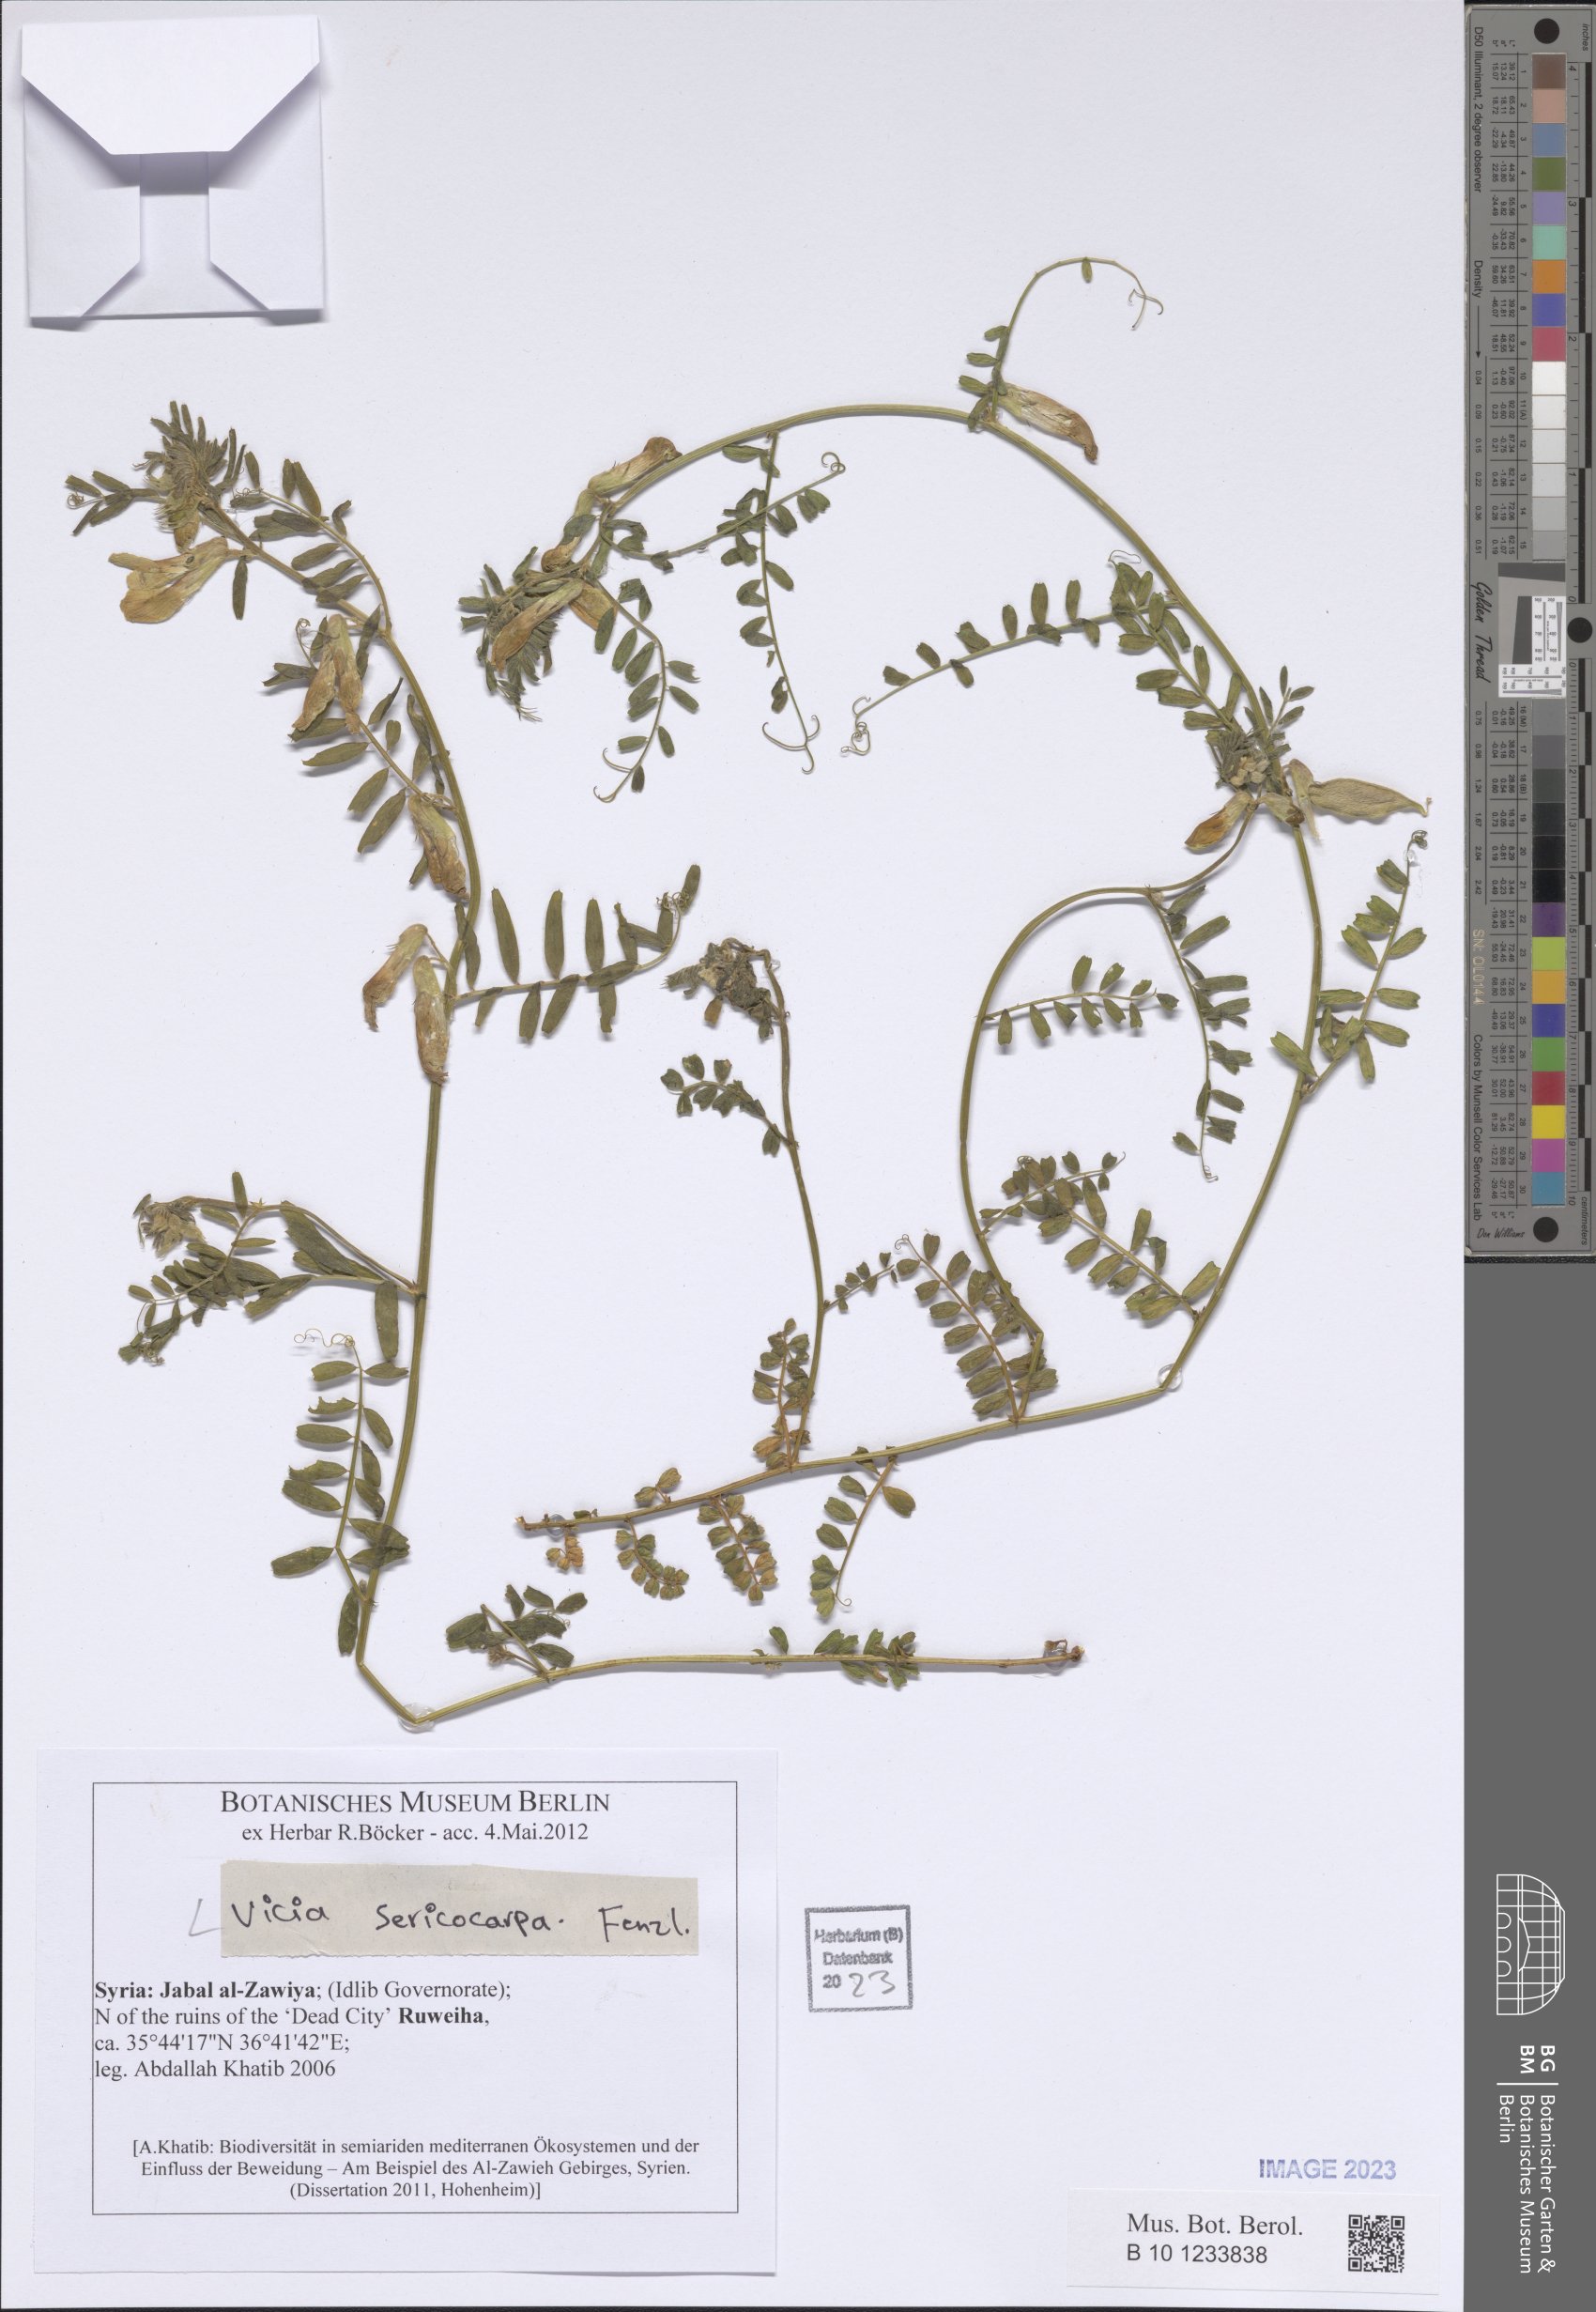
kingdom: Plantae
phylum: Tracheophyta
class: Magnoliopsida
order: Fabales
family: Fabaceae
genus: Vicia
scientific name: Vicia sericocarpa
